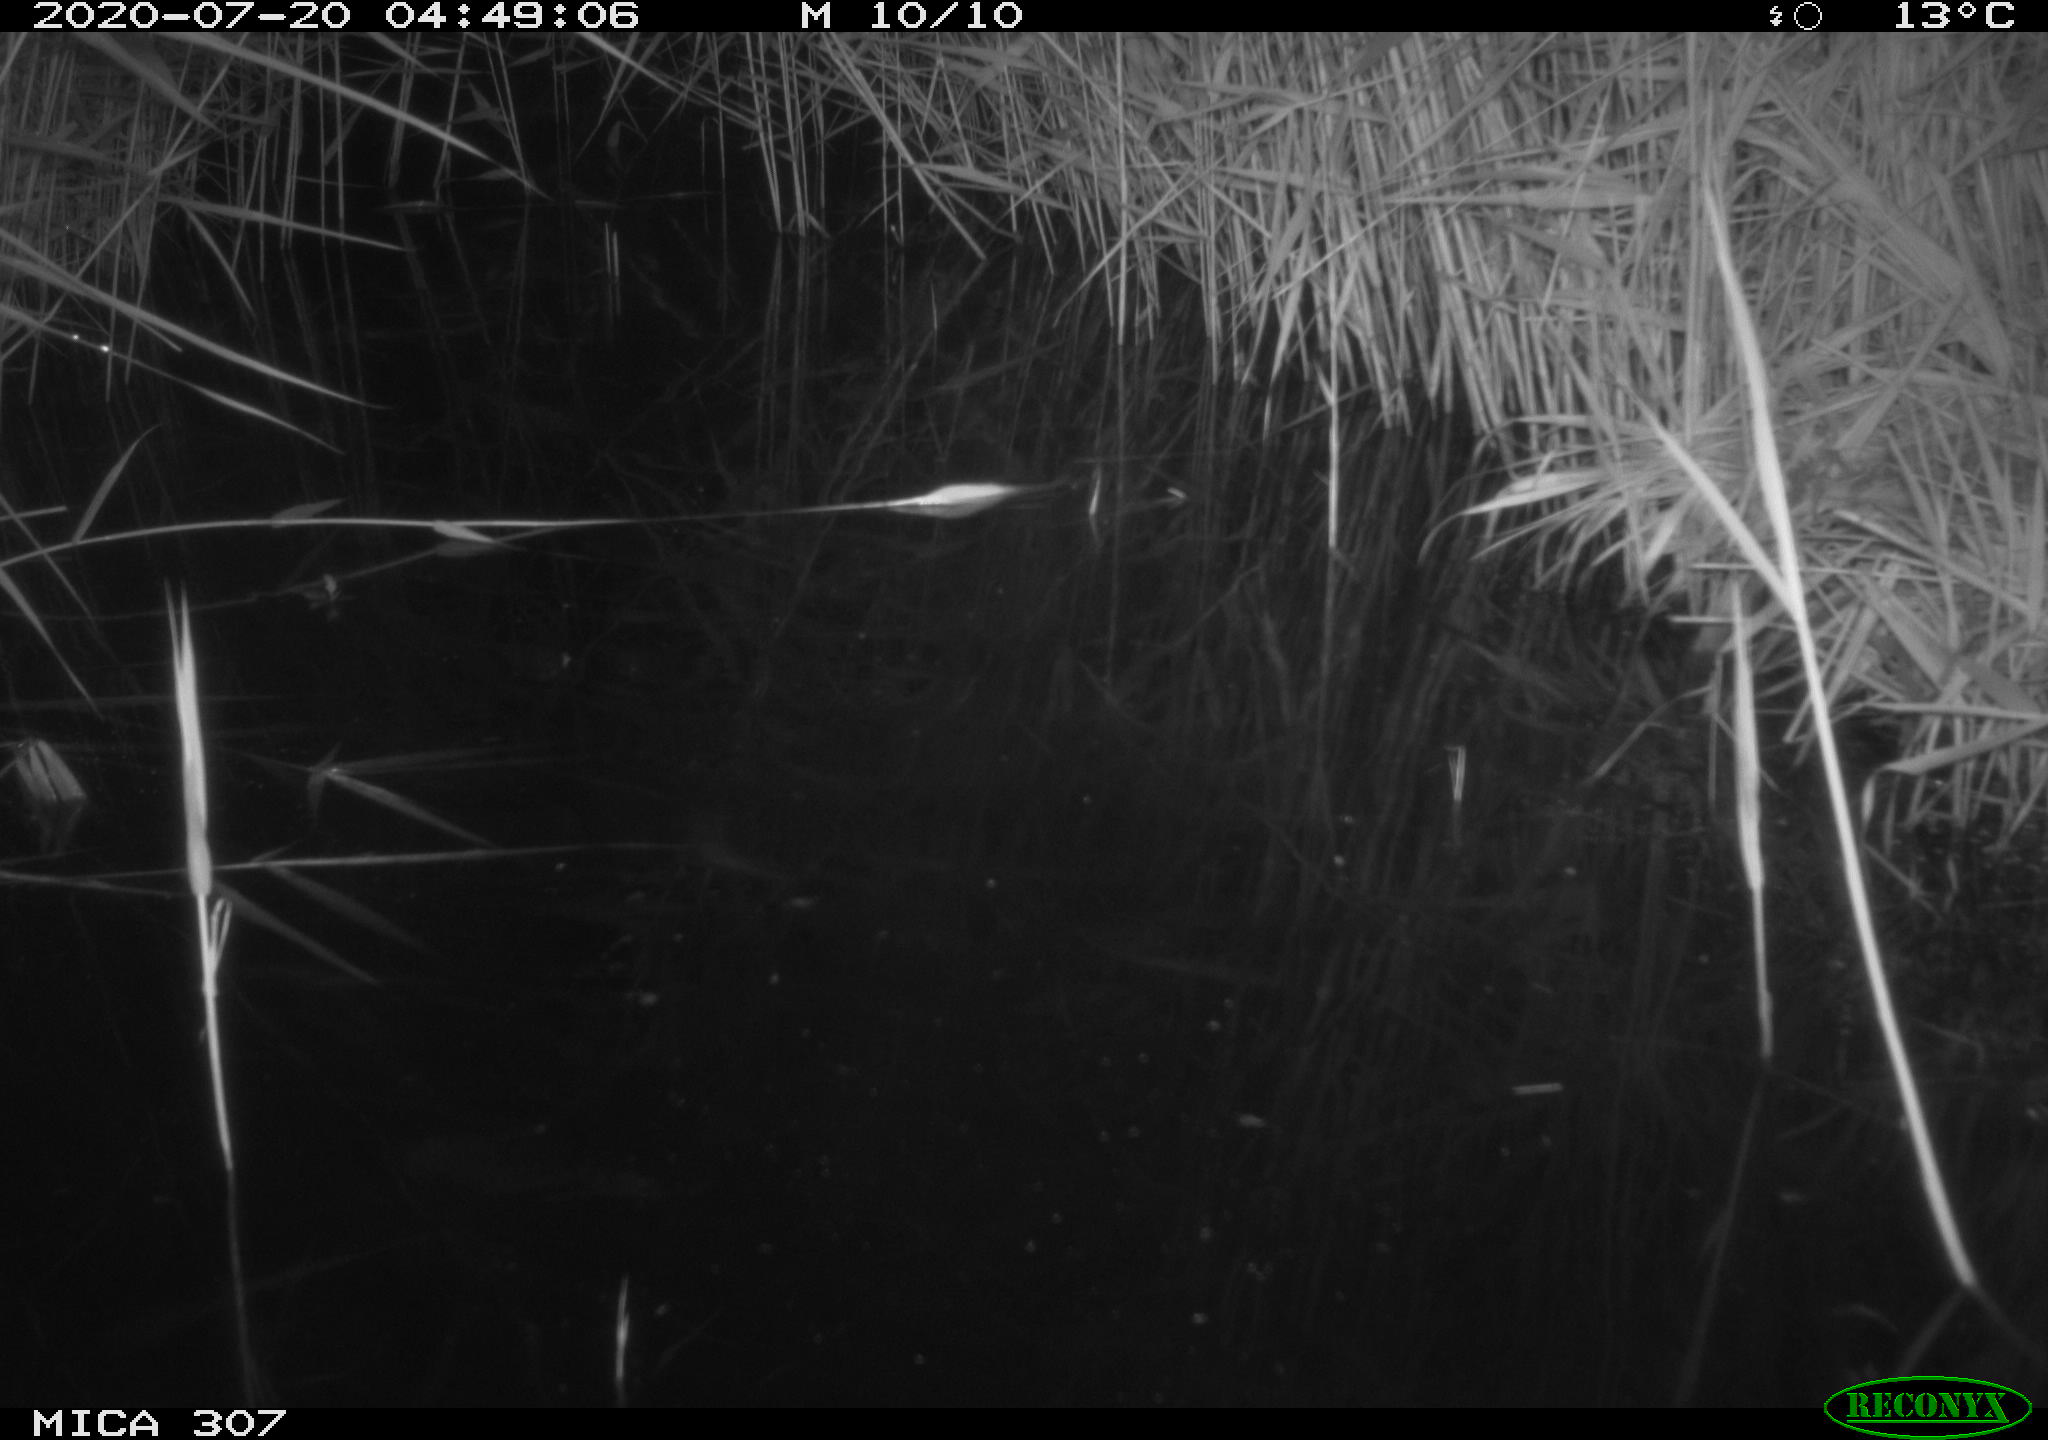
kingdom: Animalia
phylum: Chordata
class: Mammalia
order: Rodentia
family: Muridae
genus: Rattus
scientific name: Rattus norvegicus
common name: Brown rat
